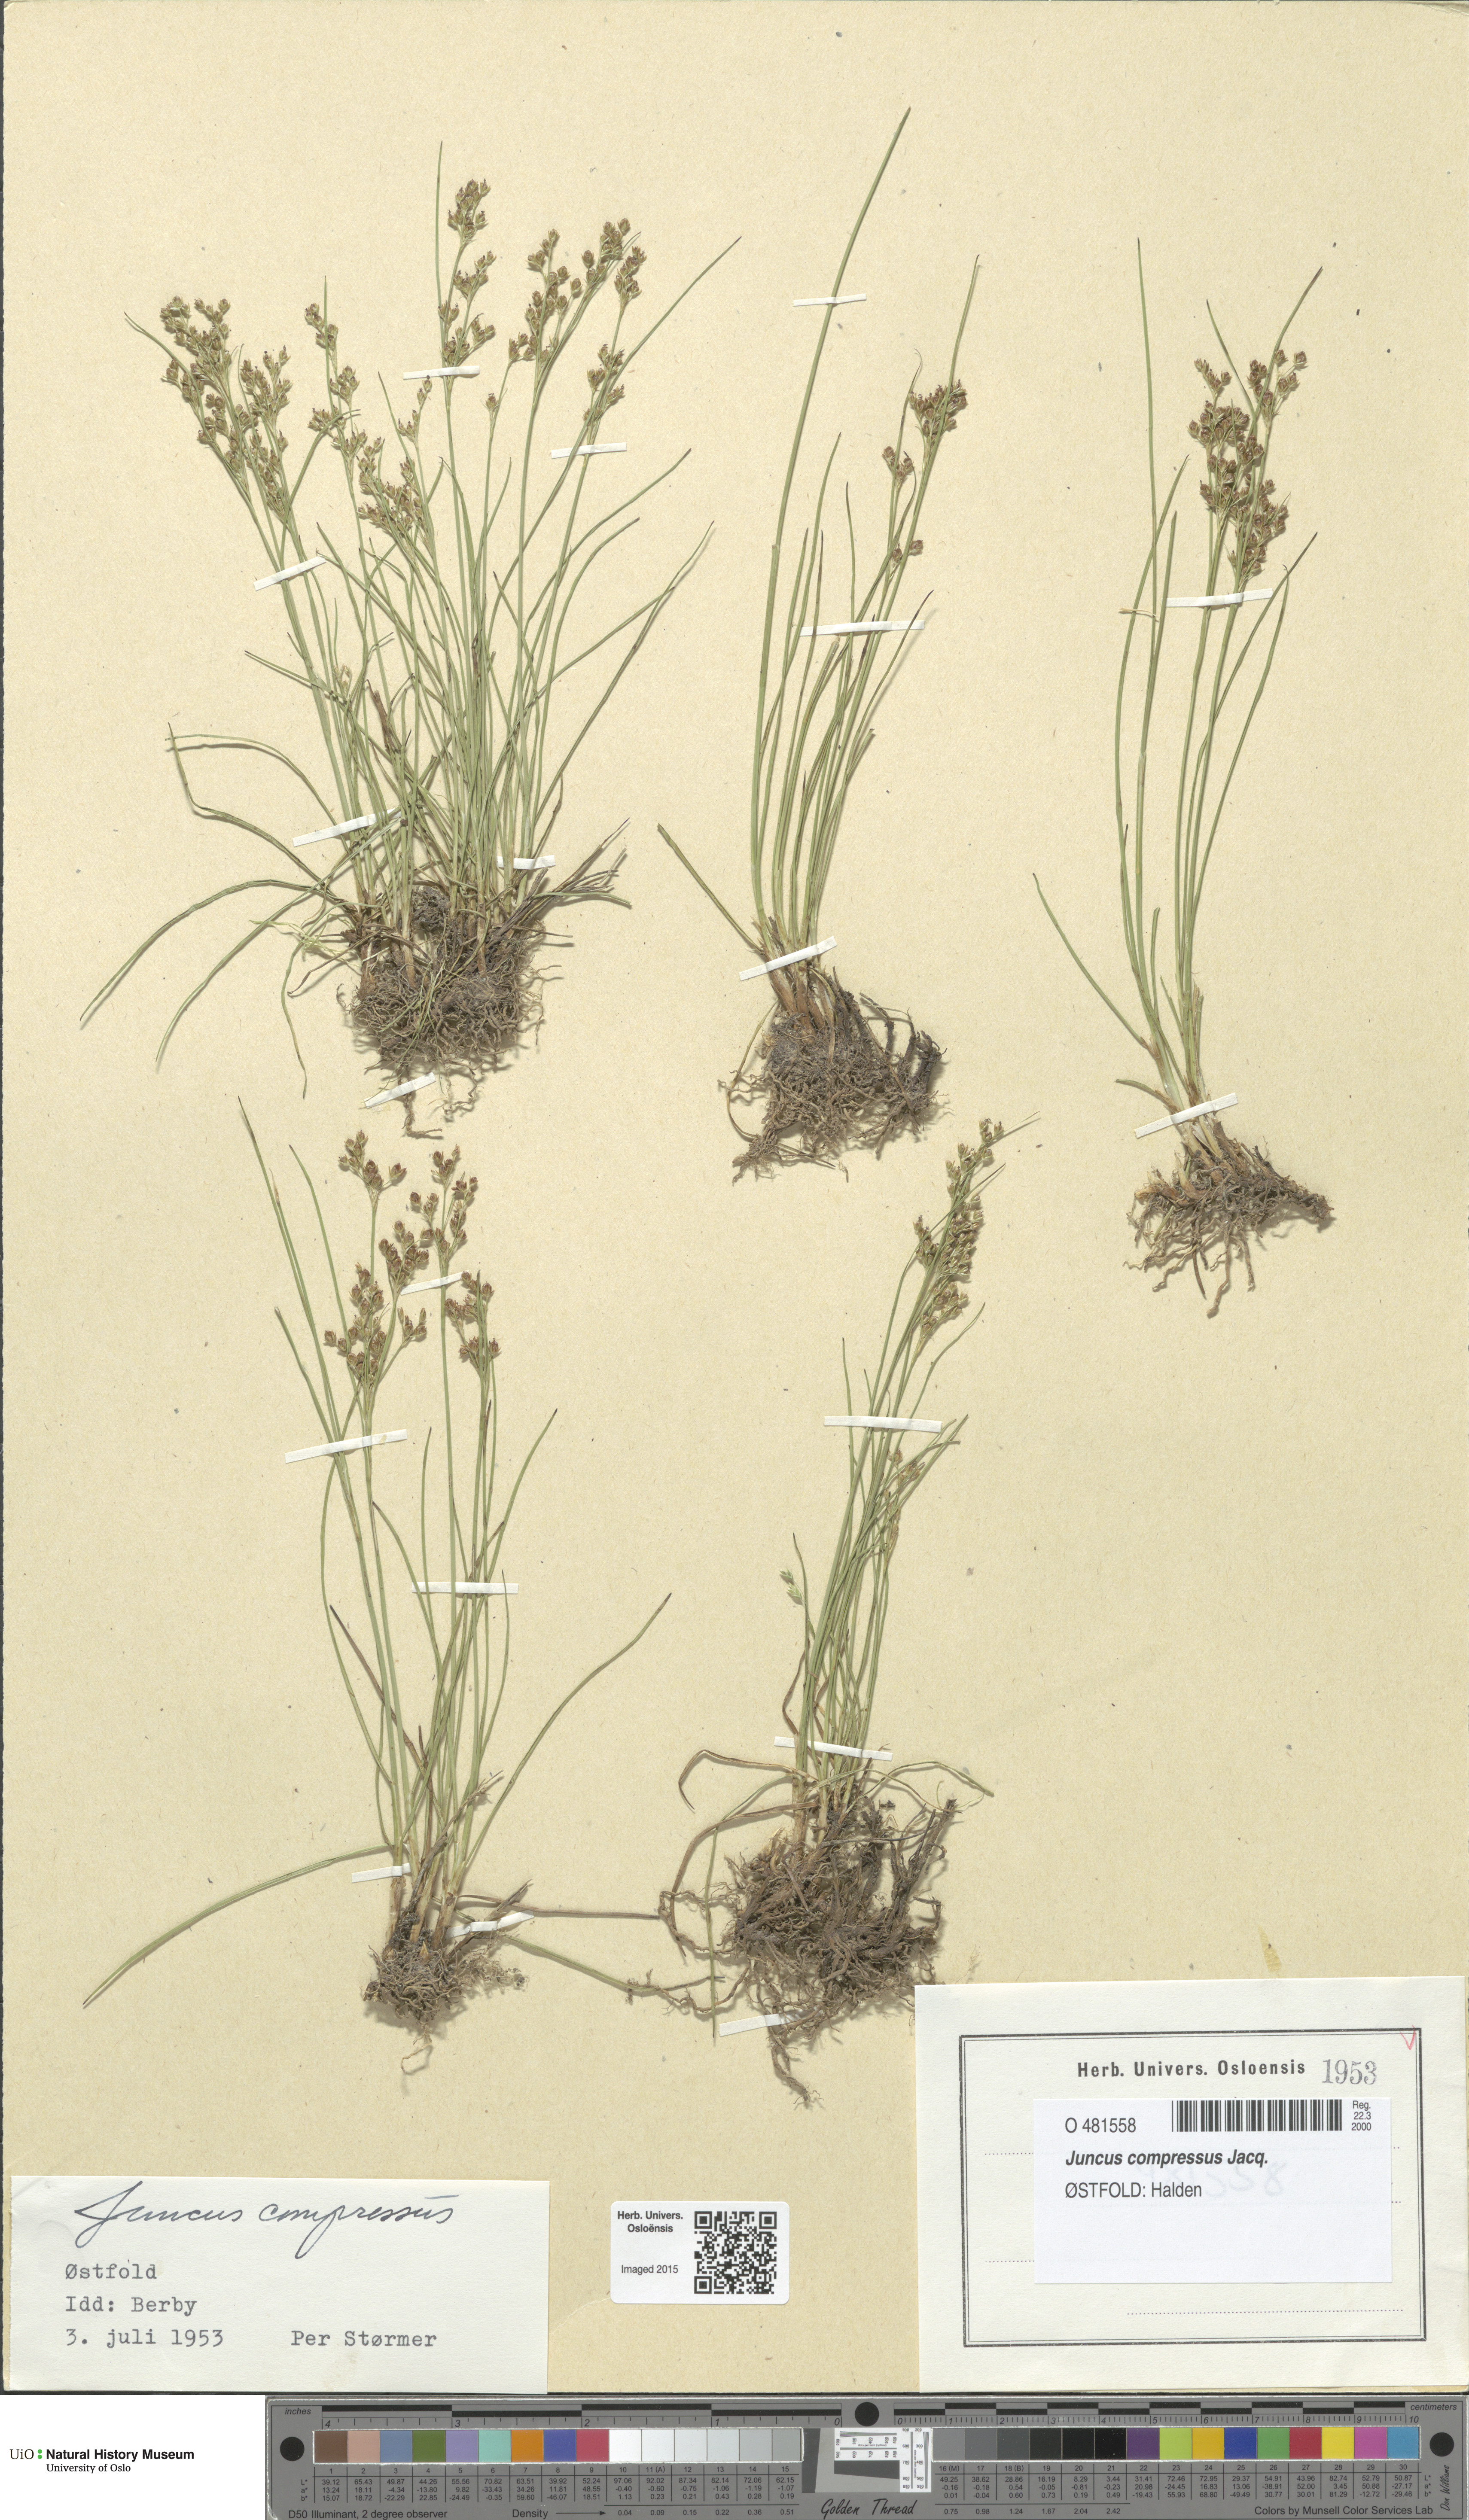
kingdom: Plantae
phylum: Tracheophyta
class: Liliopsida
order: Poales
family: Juncaceae
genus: Juncus
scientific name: Juncus compressus
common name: Round-fruited rush
